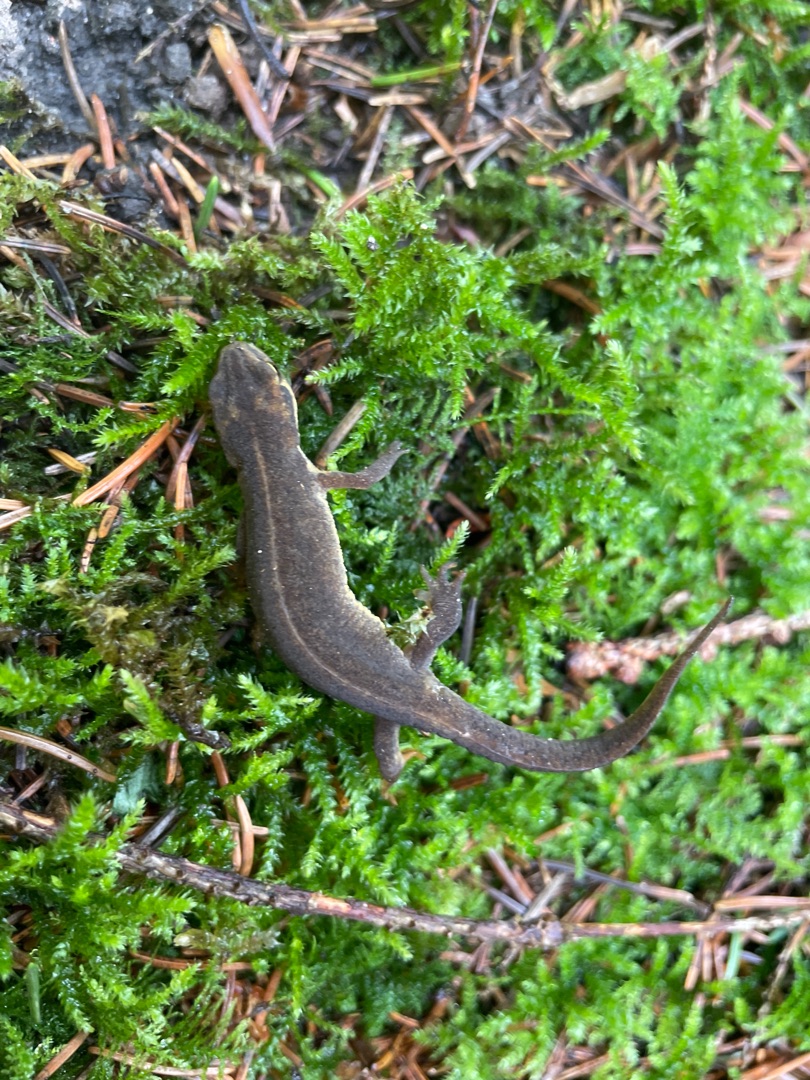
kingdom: Animalia
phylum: Chordata
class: Amphibia
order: Caudata
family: Salamandridae
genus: Lissotriton
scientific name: Lissotriton vulgaris
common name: Lille vandsalamander
